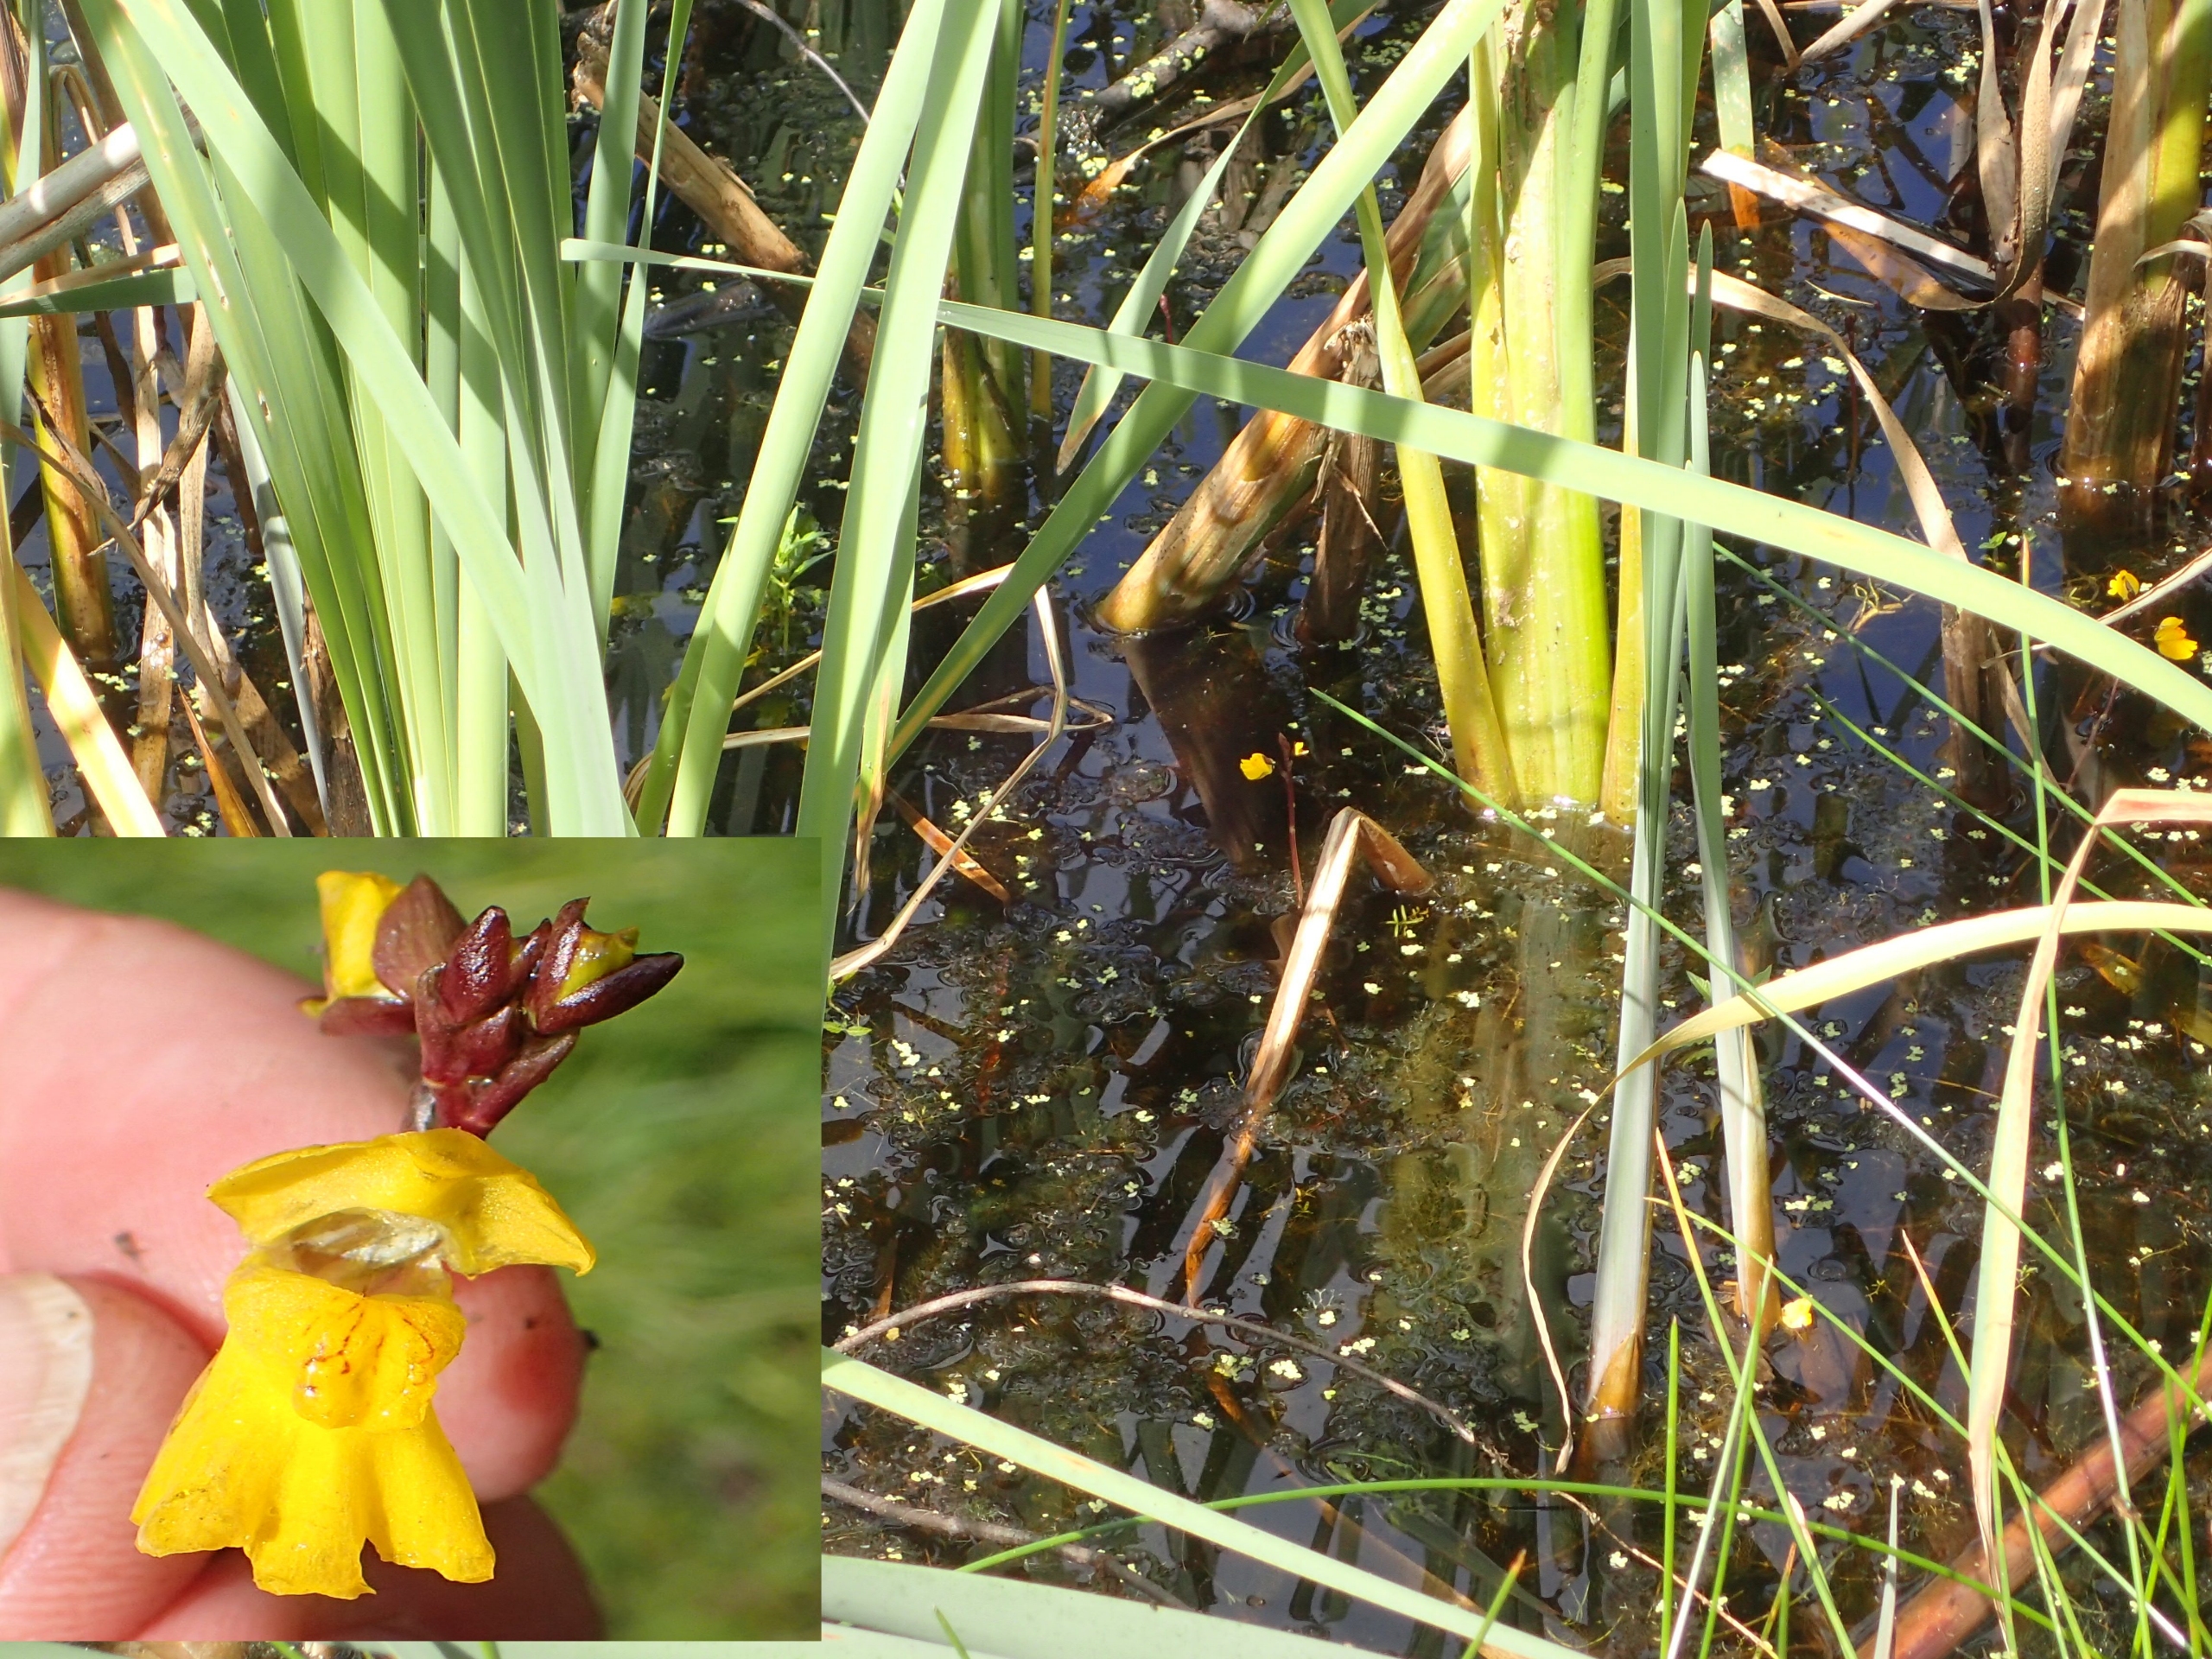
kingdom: Plantae
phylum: Tracheophyta
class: Magnoliopsida
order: Lamiales
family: Lentibulariaceae
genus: Utricularia
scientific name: Utricularia vulgaris
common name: Almindelig blærerod
